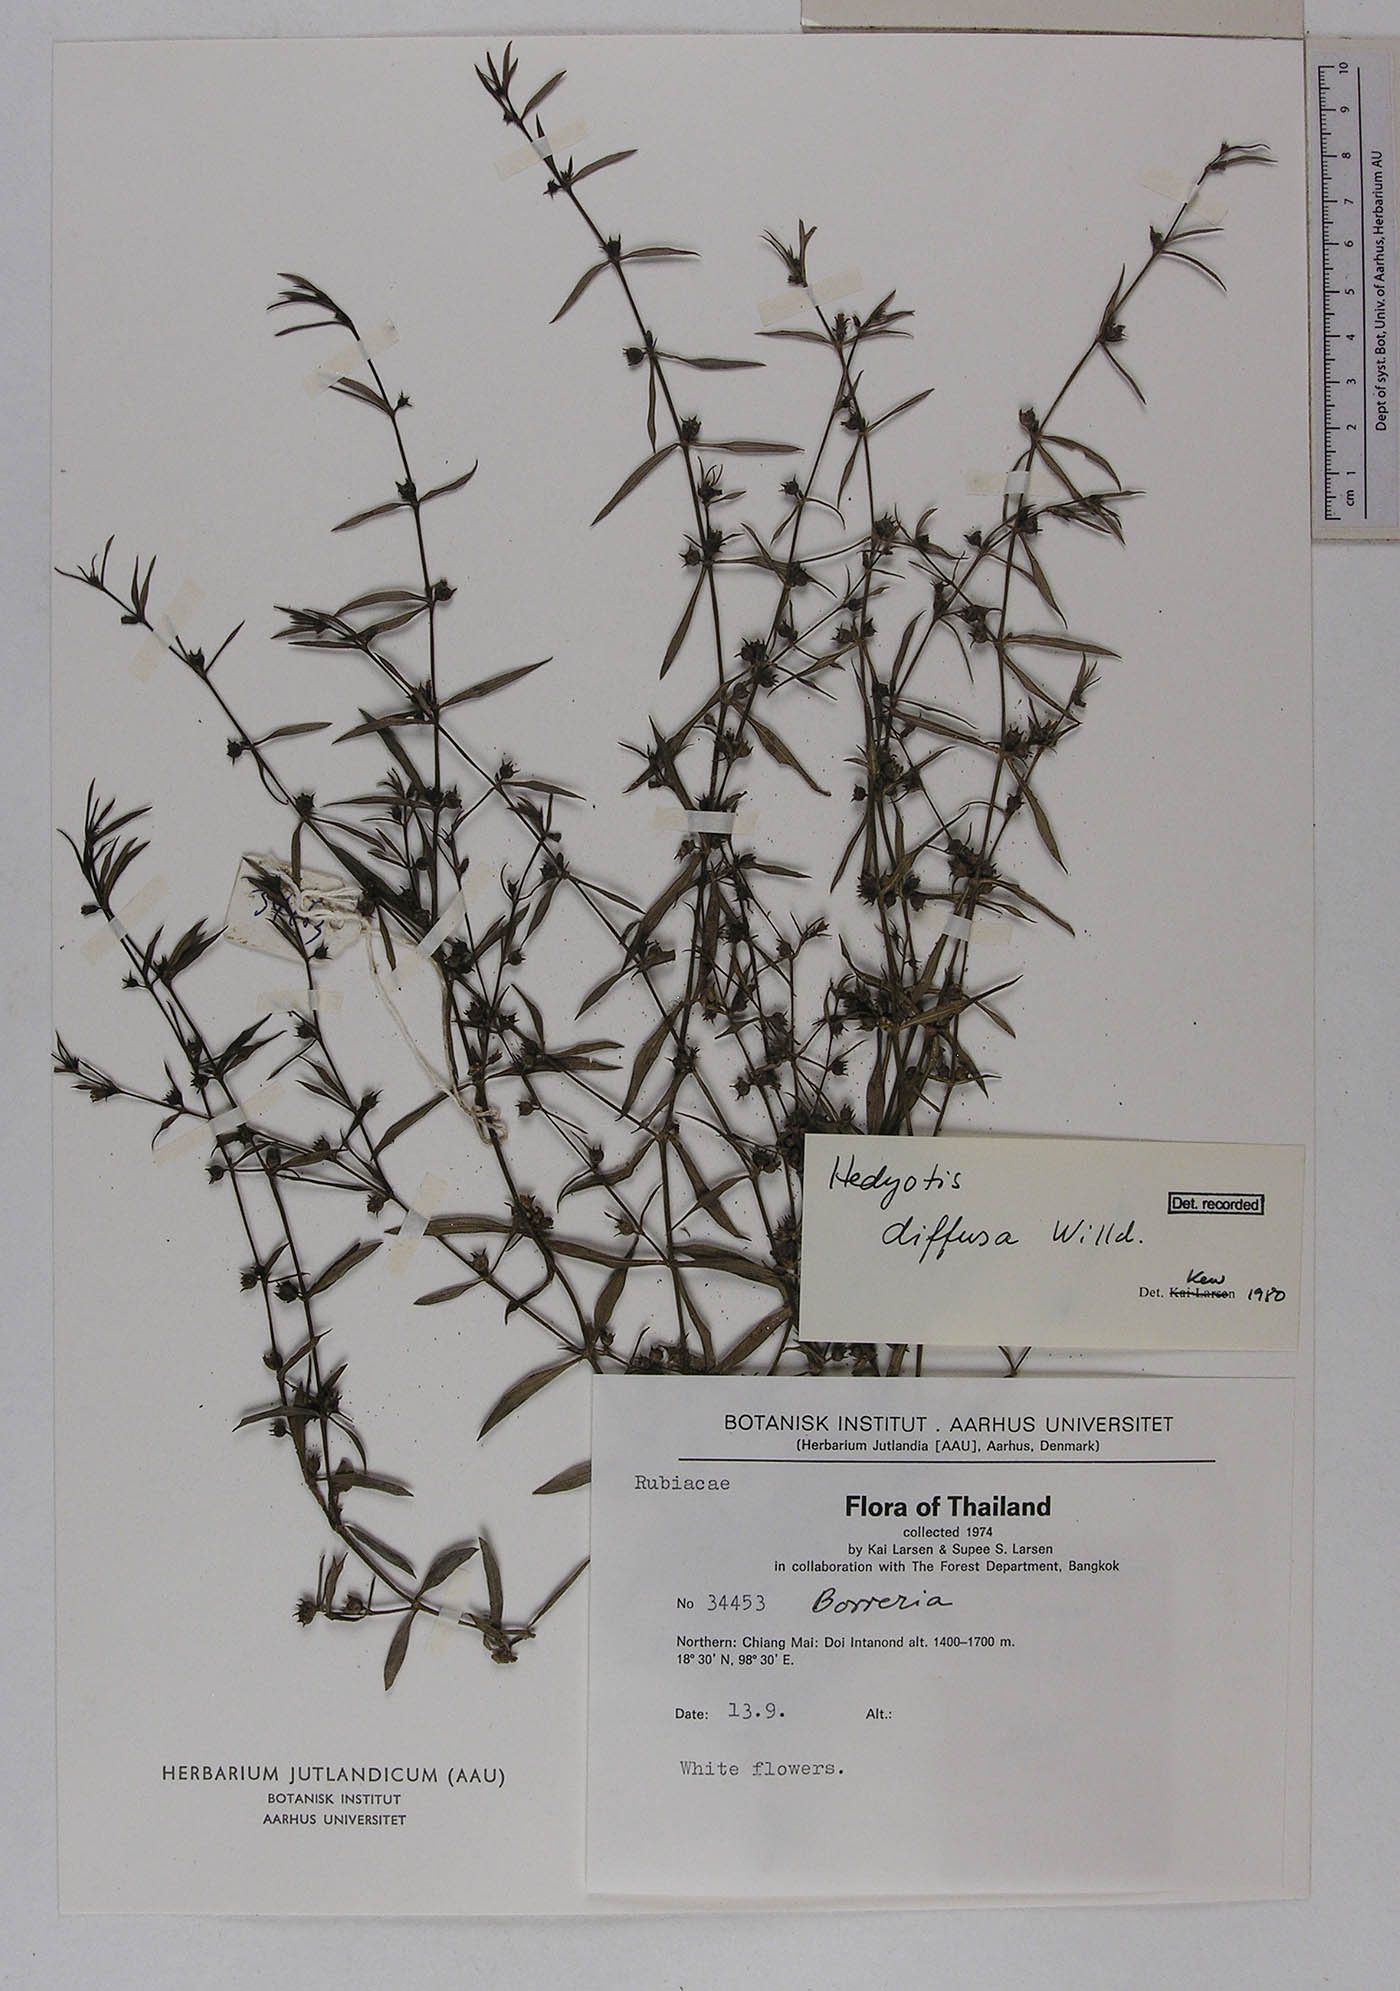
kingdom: Plantae
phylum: Tracheophyta
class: Magnoliopsida
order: Gentianales
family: Rubiaceae
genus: Scleromitrion
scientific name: Scleromitrion diffusum
